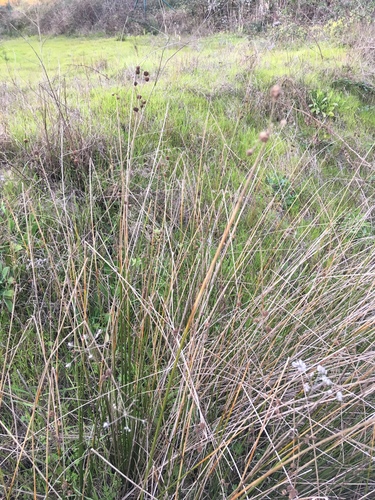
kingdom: Plantae
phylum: Tracheophyta
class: Liliopsida
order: Poales
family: Cyperaceae
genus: Scirpoides
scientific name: Scirpoides holoschoenus
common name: Round-headed club-rush
